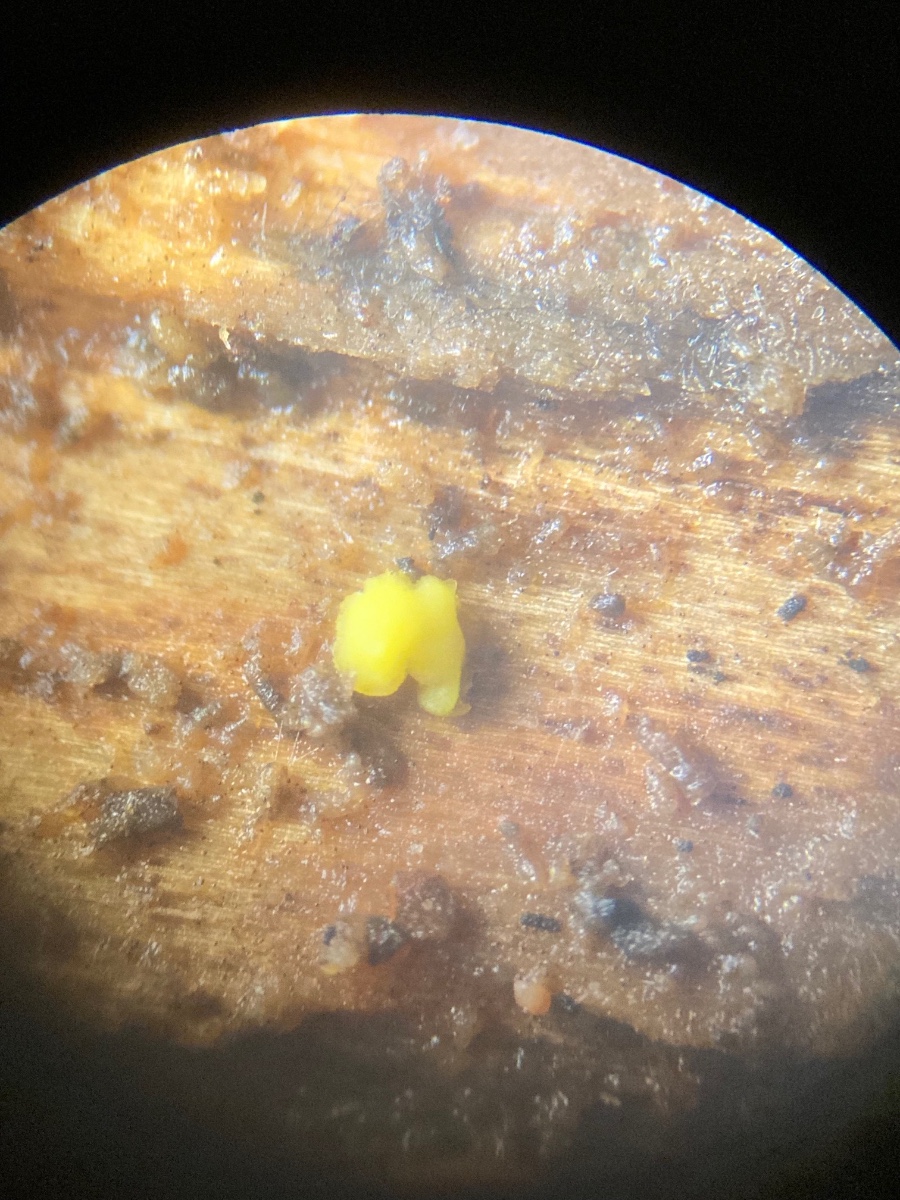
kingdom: Fungi
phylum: Ascomycota
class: Leotiomycetes
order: Helotiales
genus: Lemalis
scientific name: Lemalis aurea
